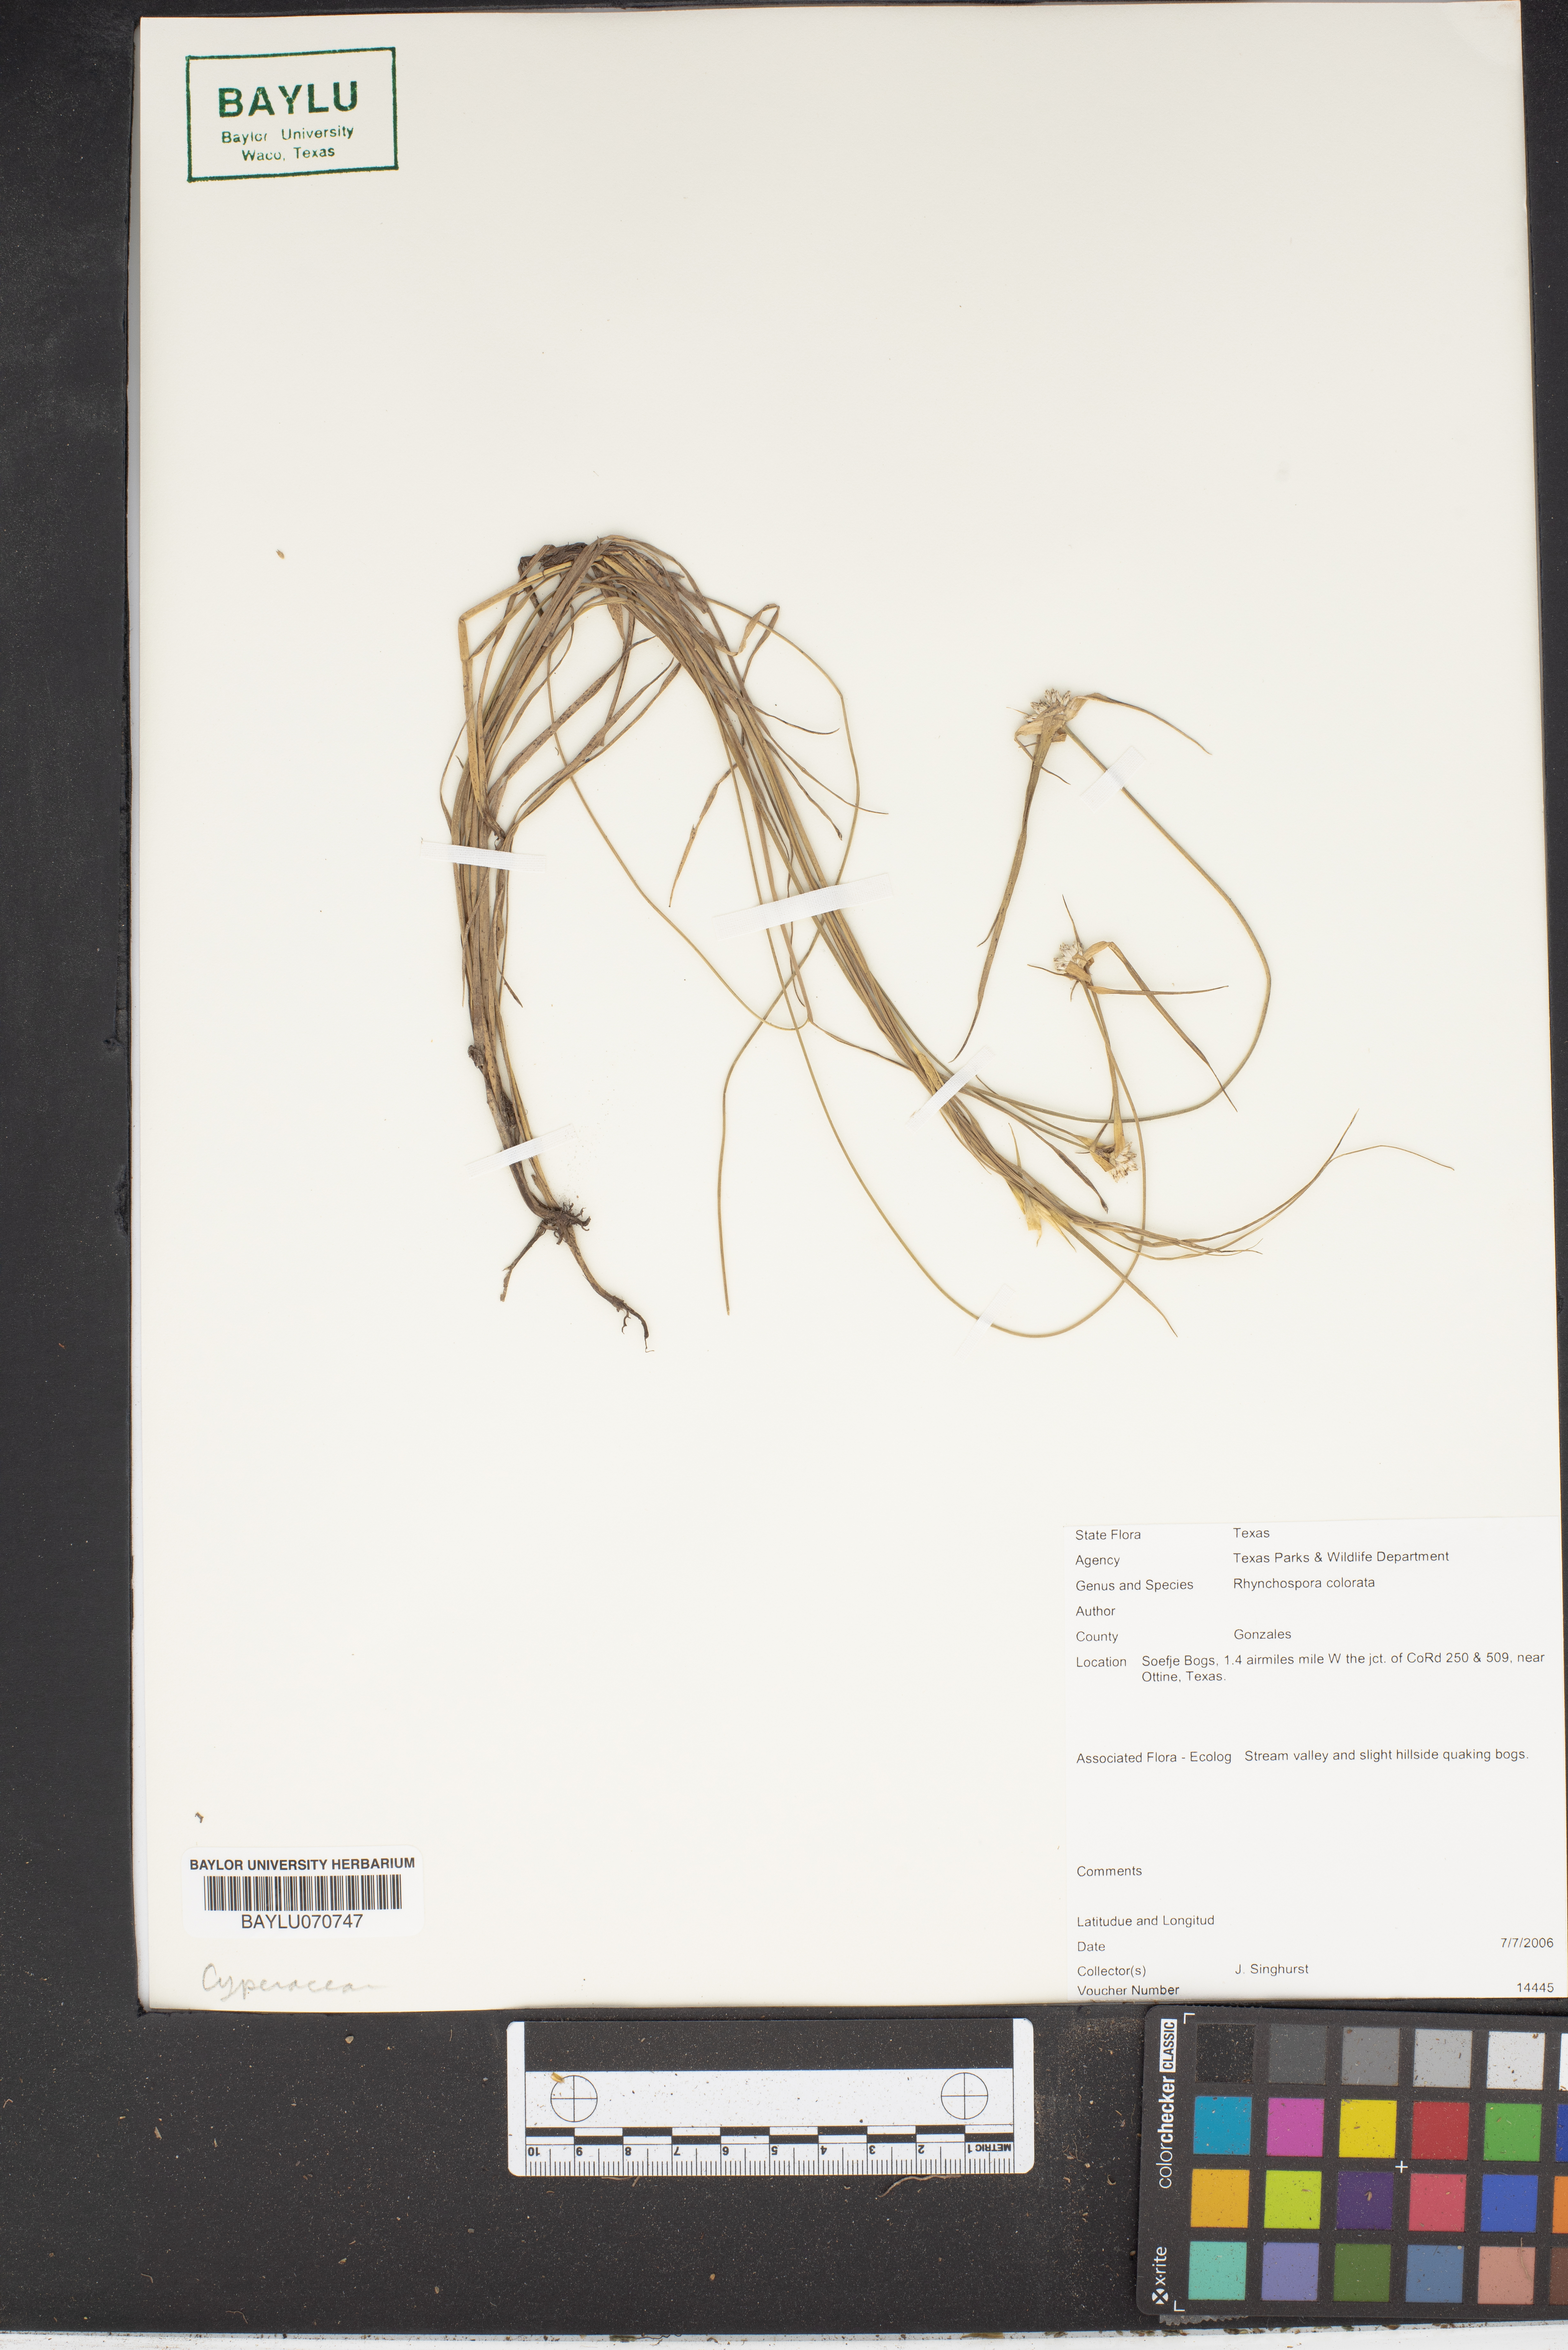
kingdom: Plantae
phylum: Tracheophyta
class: Liliopsida
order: Poales
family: Cyperaceae
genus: Rhynchospora
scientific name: Rhynchospora colorata
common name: Star sedge
